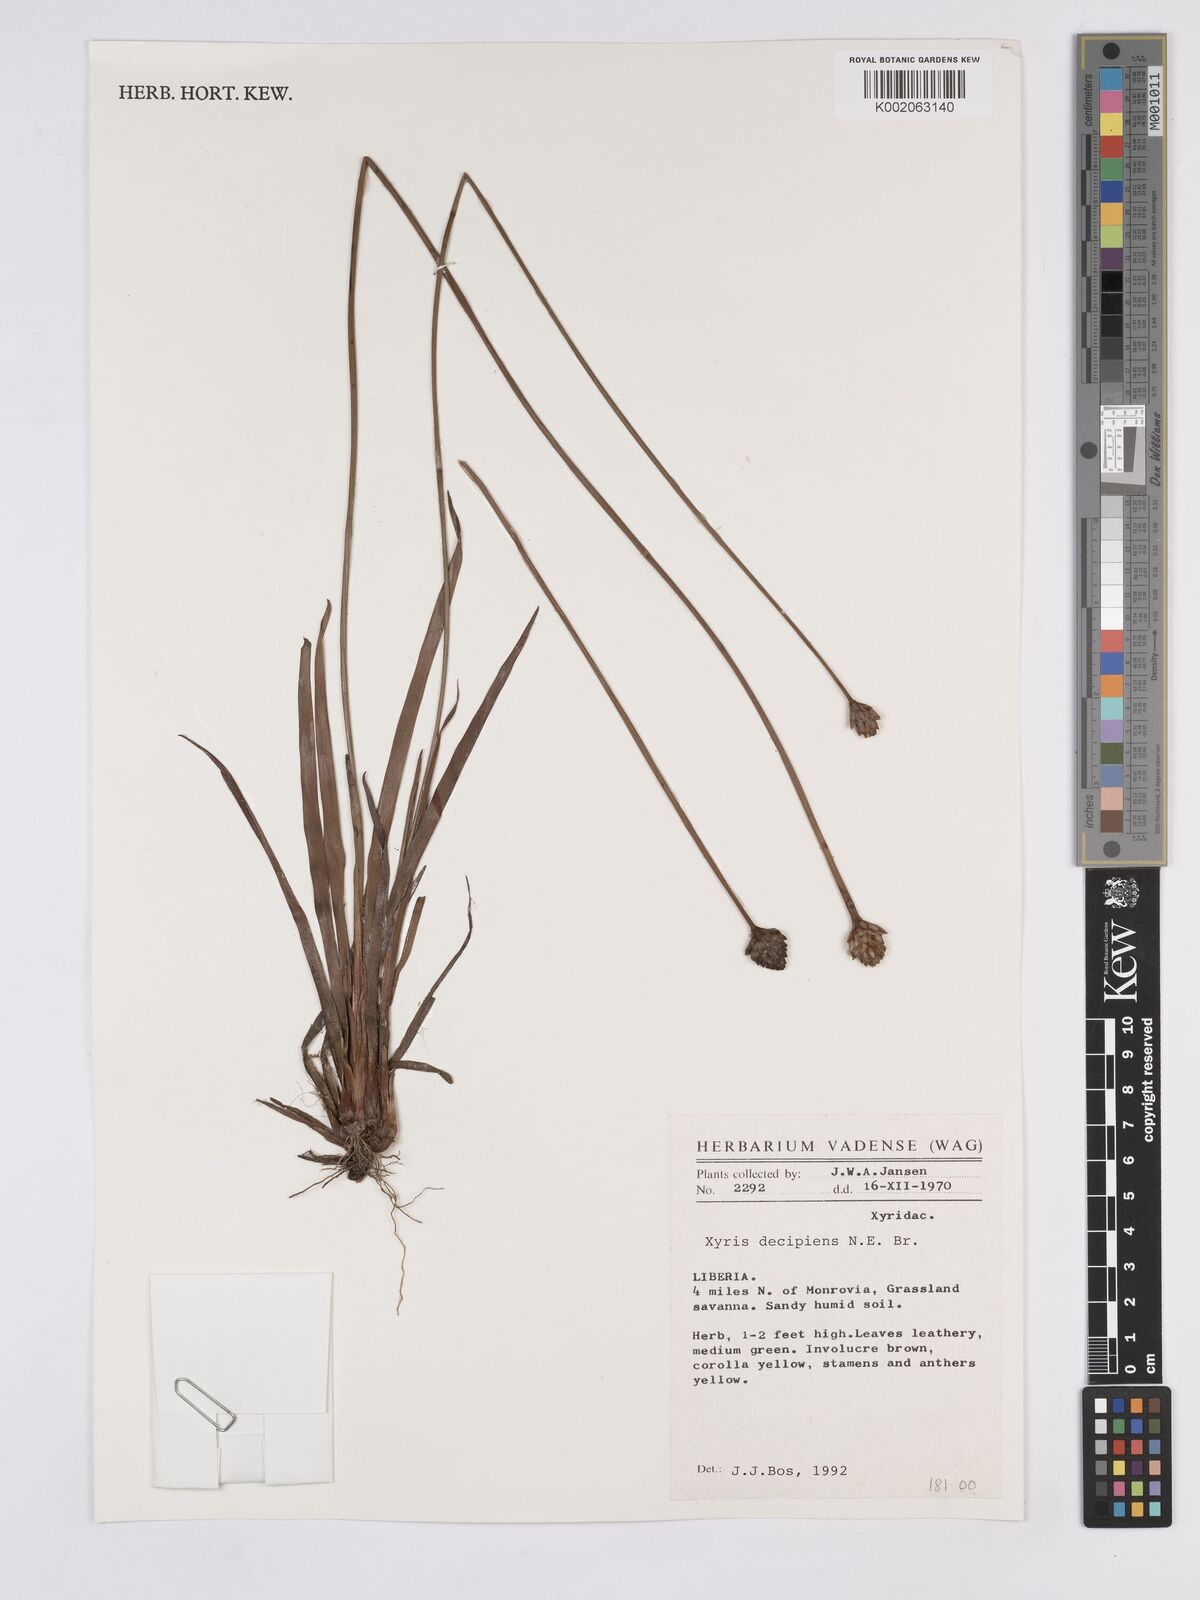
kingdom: Plantae
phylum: Tracheophyta
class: Liliopsida
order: Poales
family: Xyridaceae
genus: Xyris
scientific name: Xyris decipiens
